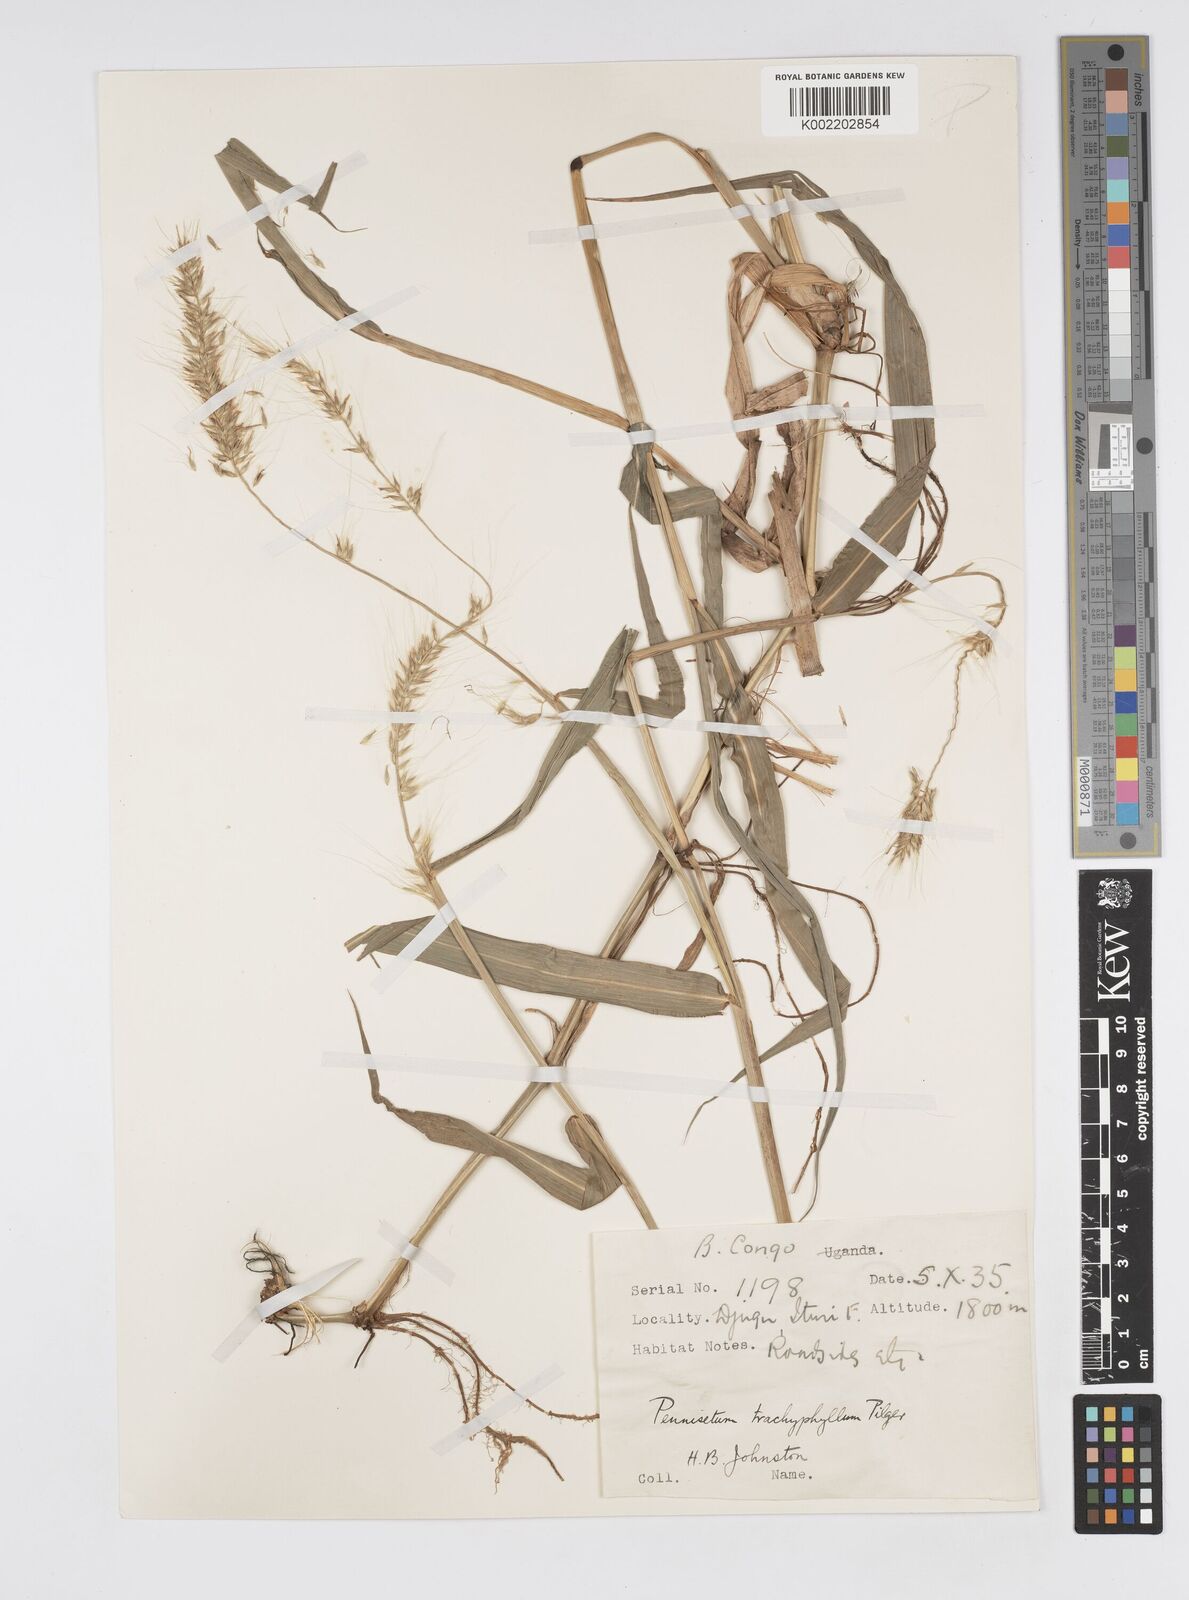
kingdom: Plantae
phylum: Tracheophyta
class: Liliopsida
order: Poales
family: Poaceae
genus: Cenchrus
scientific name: Cenchrus trachyphyllus
